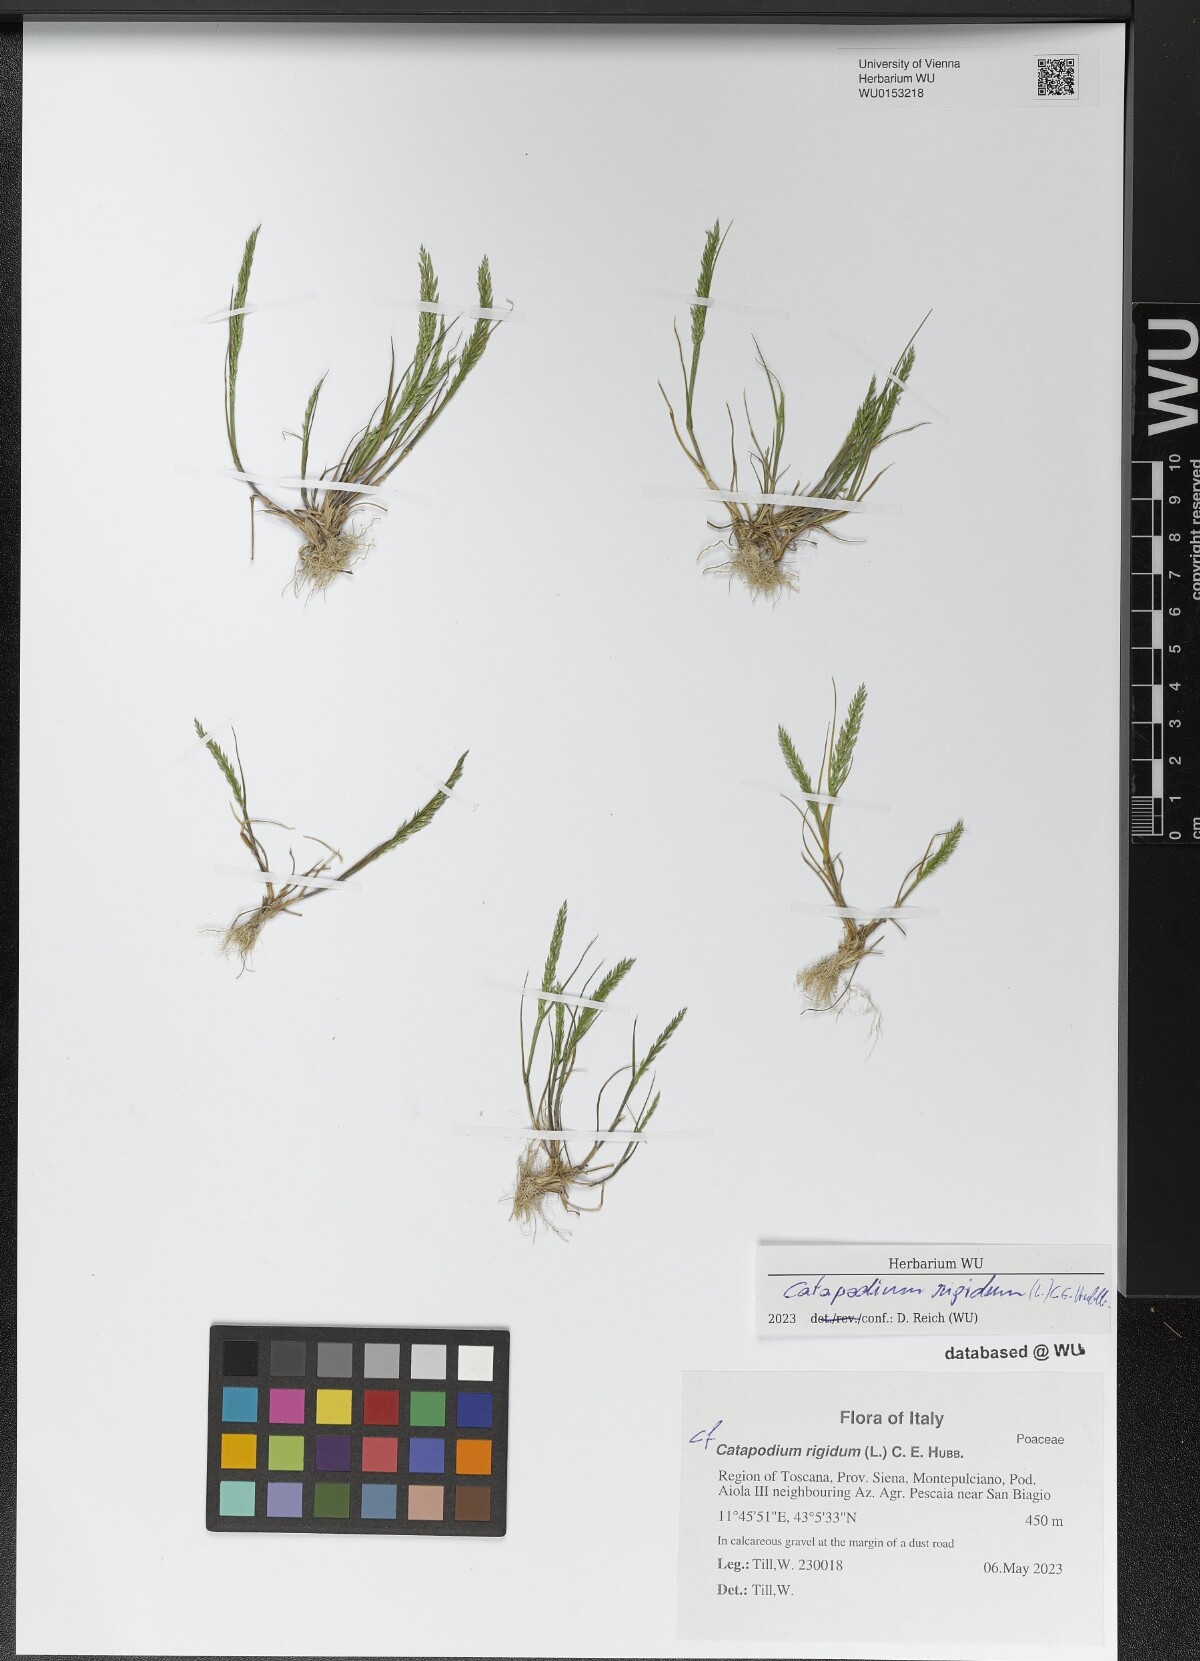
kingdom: Plantae
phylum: Tracheophyta
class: Liliopsida
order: Poales
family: Poaceae
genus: Catapodium
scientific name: Catapodium rigidum
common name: Fern-grass
